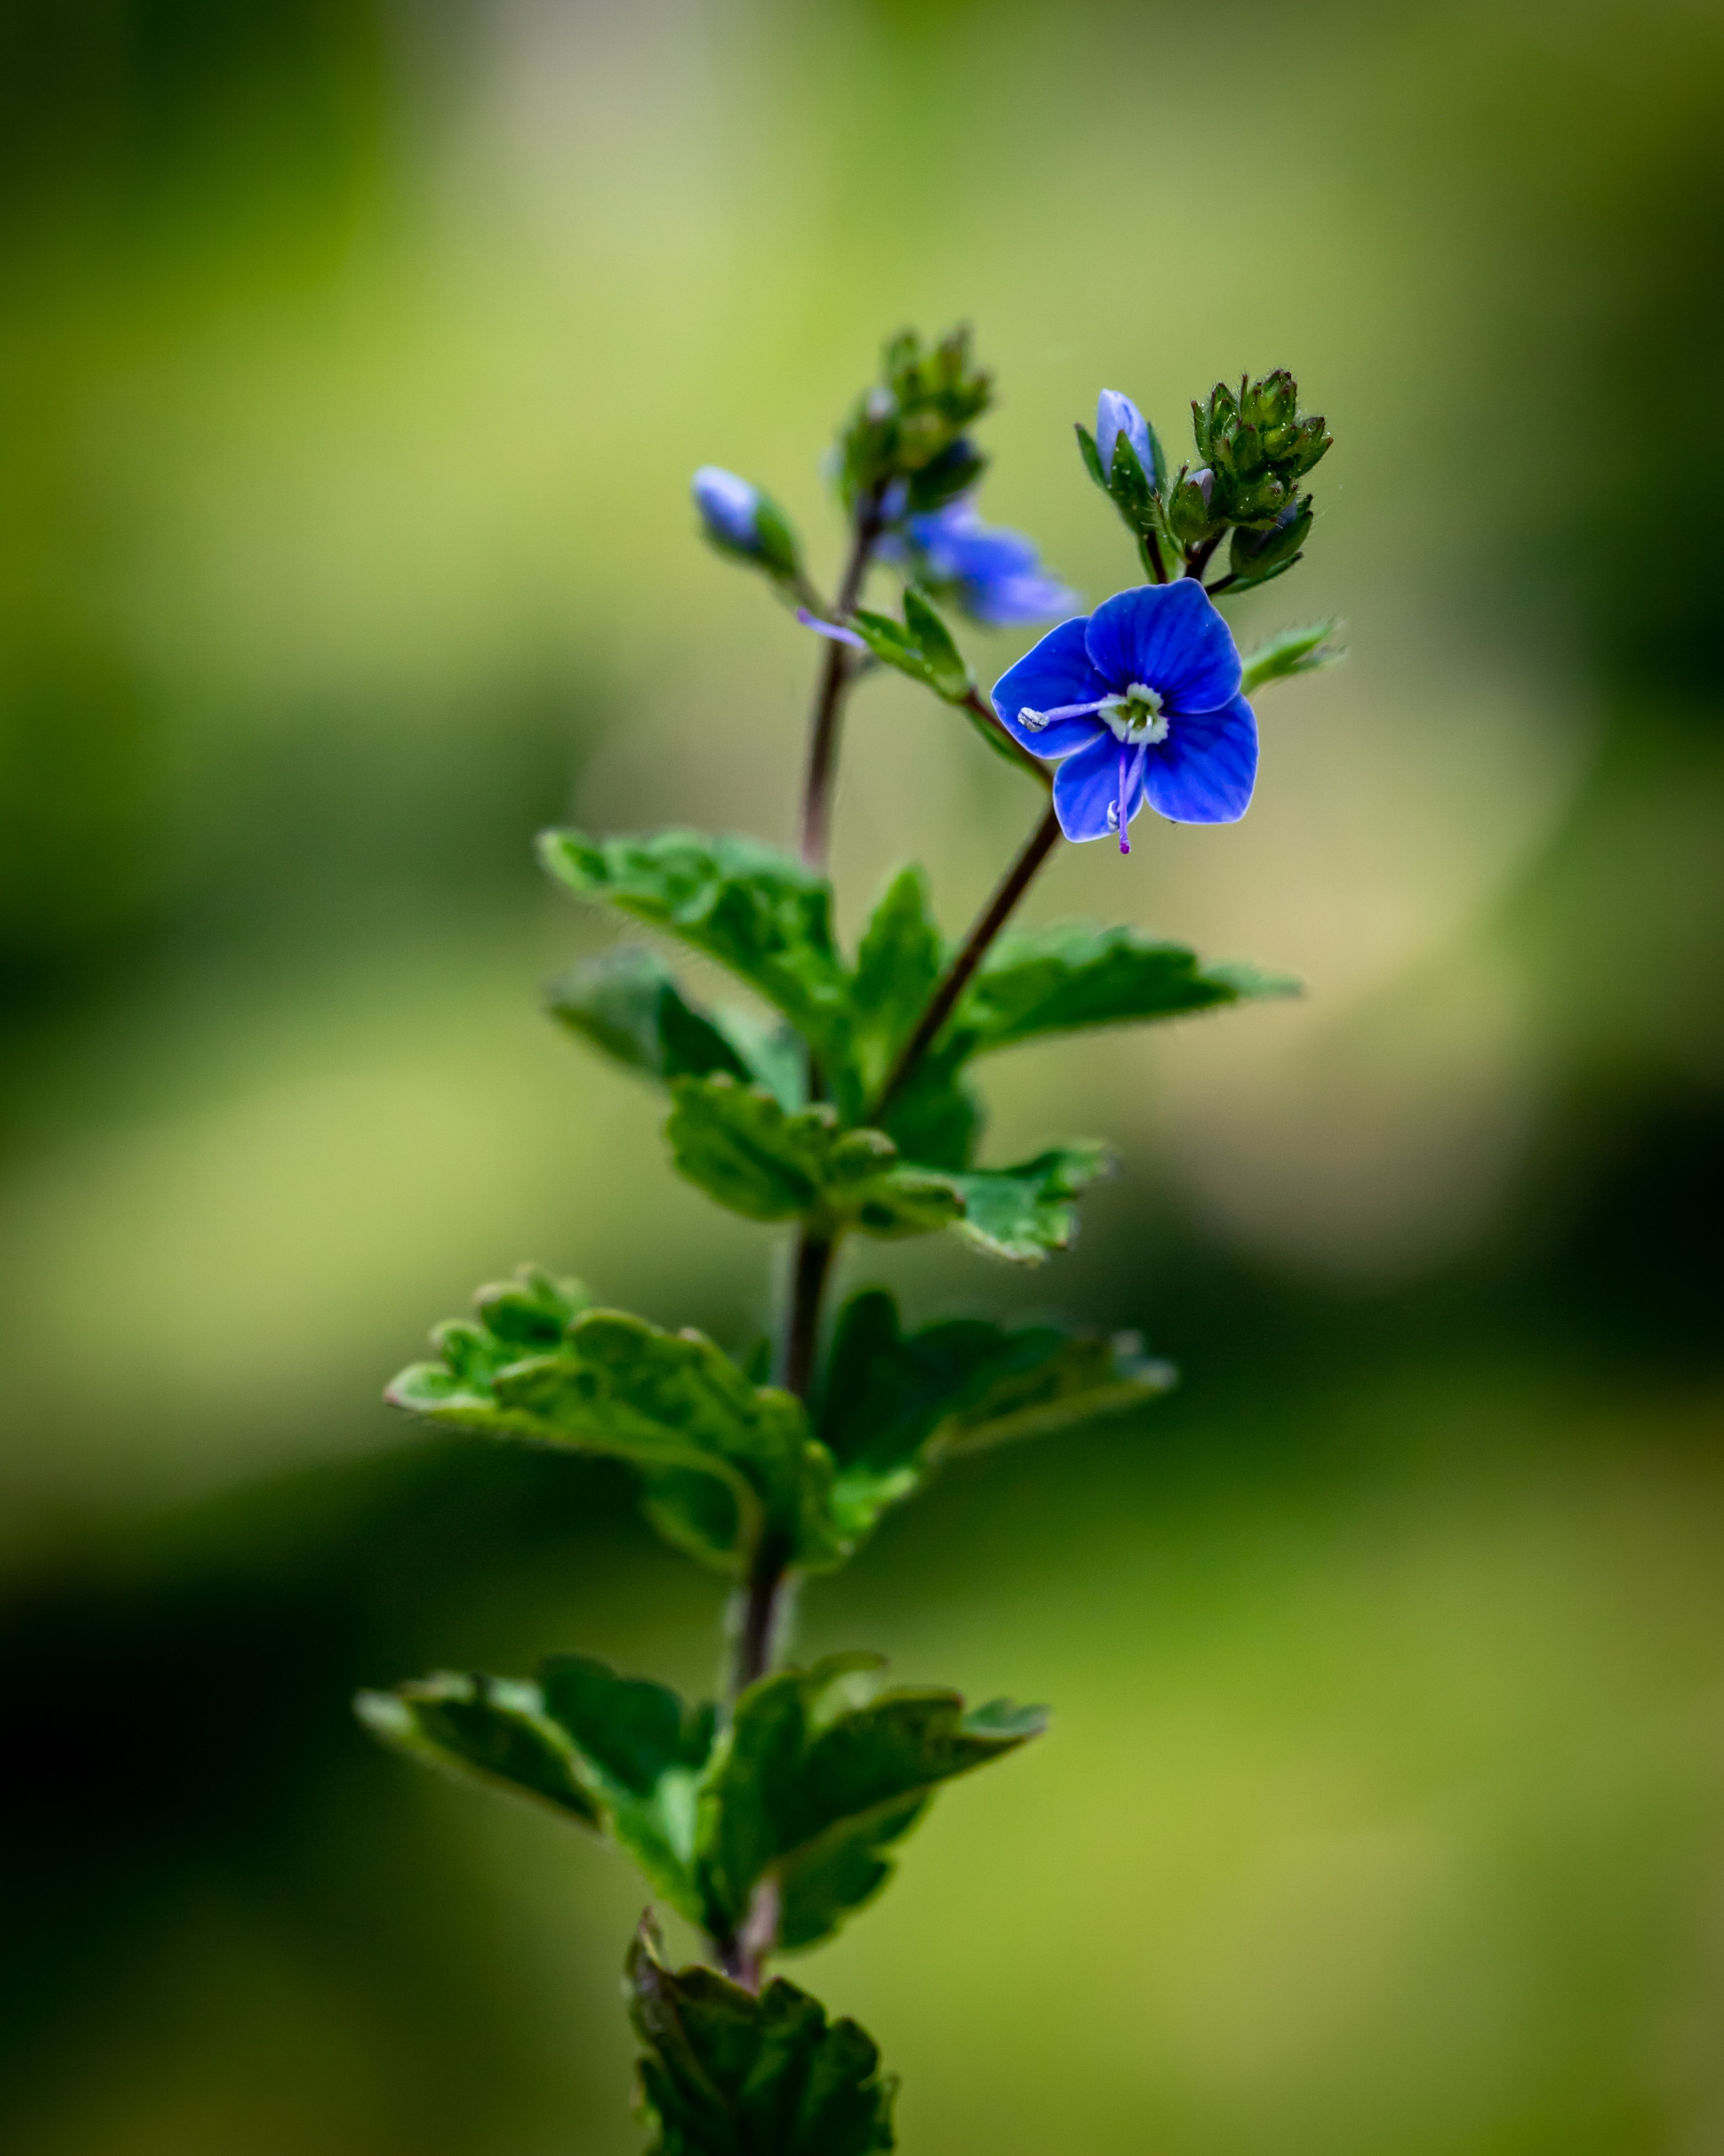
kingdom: Plantae
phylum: Tracheophyta
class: Magnoliopsida
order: Lamiales
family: Plantaginaceae
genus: Veronica
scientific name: Veronica chamaedrys
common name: Tveskægget ærenpris
